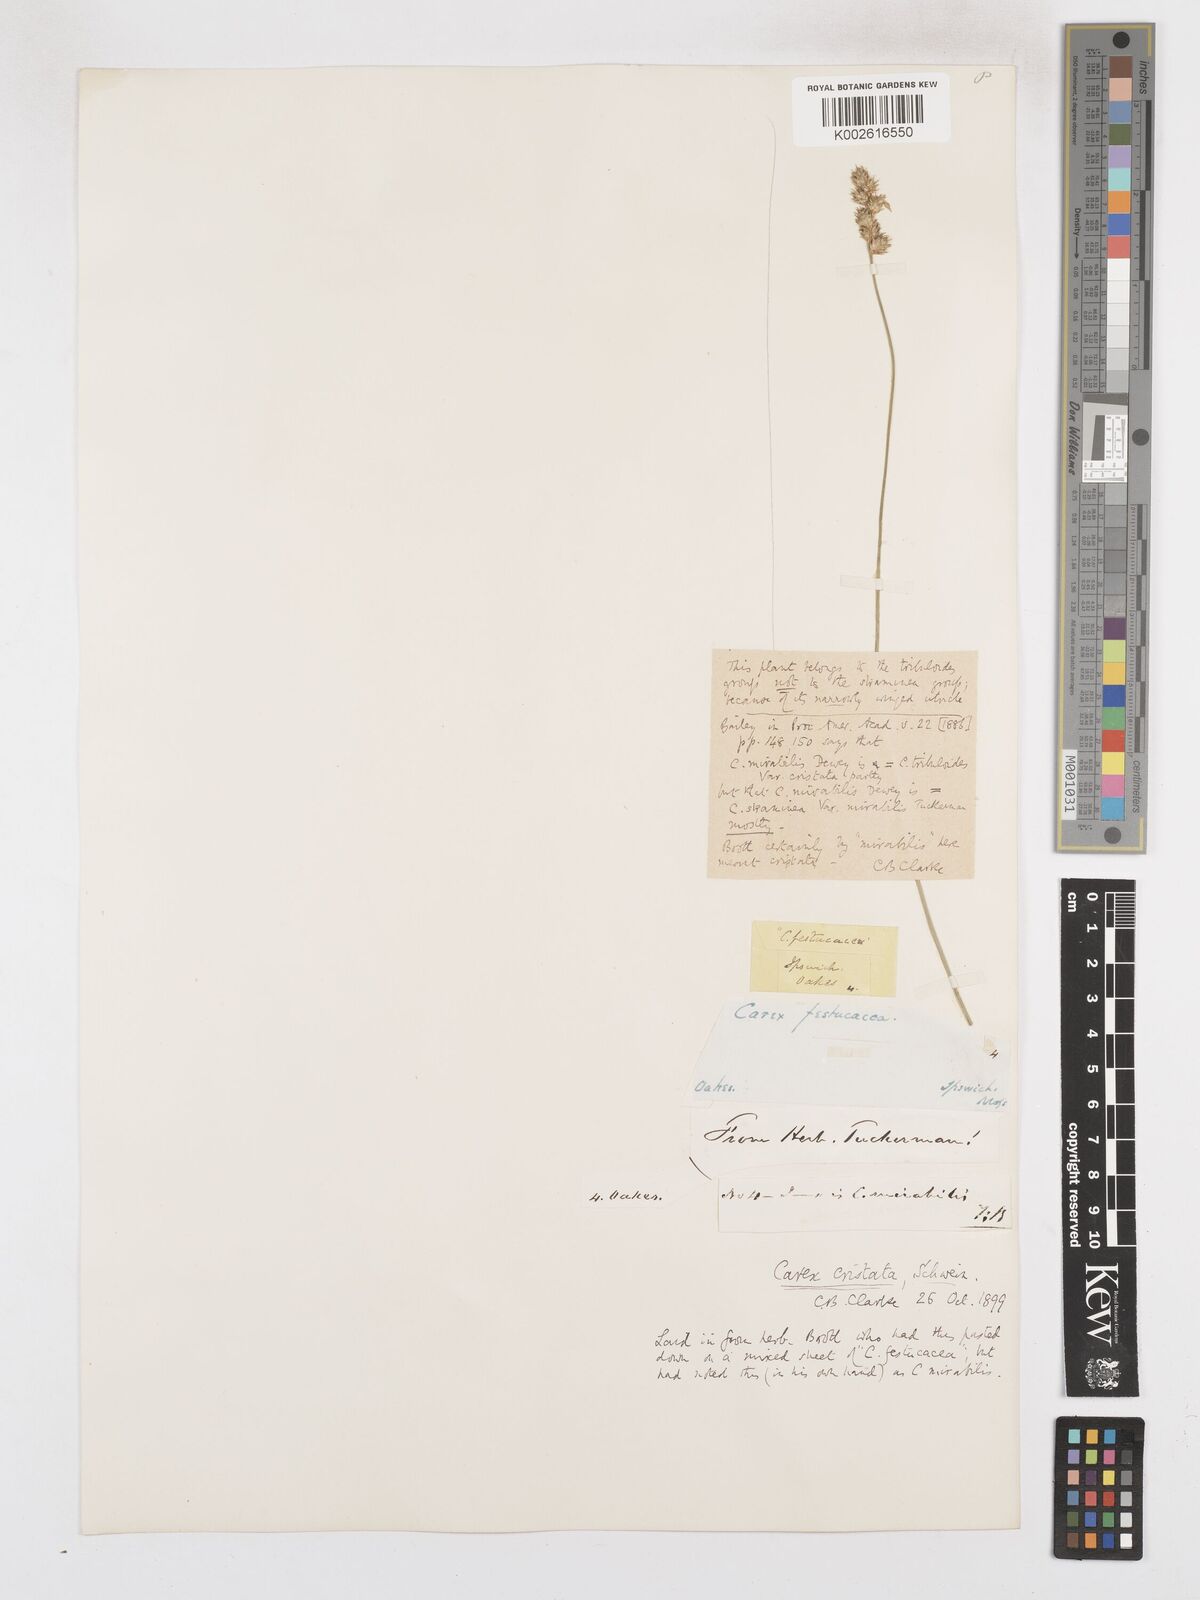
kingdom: Plantae
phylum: Tracheophyta
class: Liliopsida
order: Poales
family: Cyperaceae
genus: Carex
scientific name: Carex cristatella
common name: Crested oval sedge
